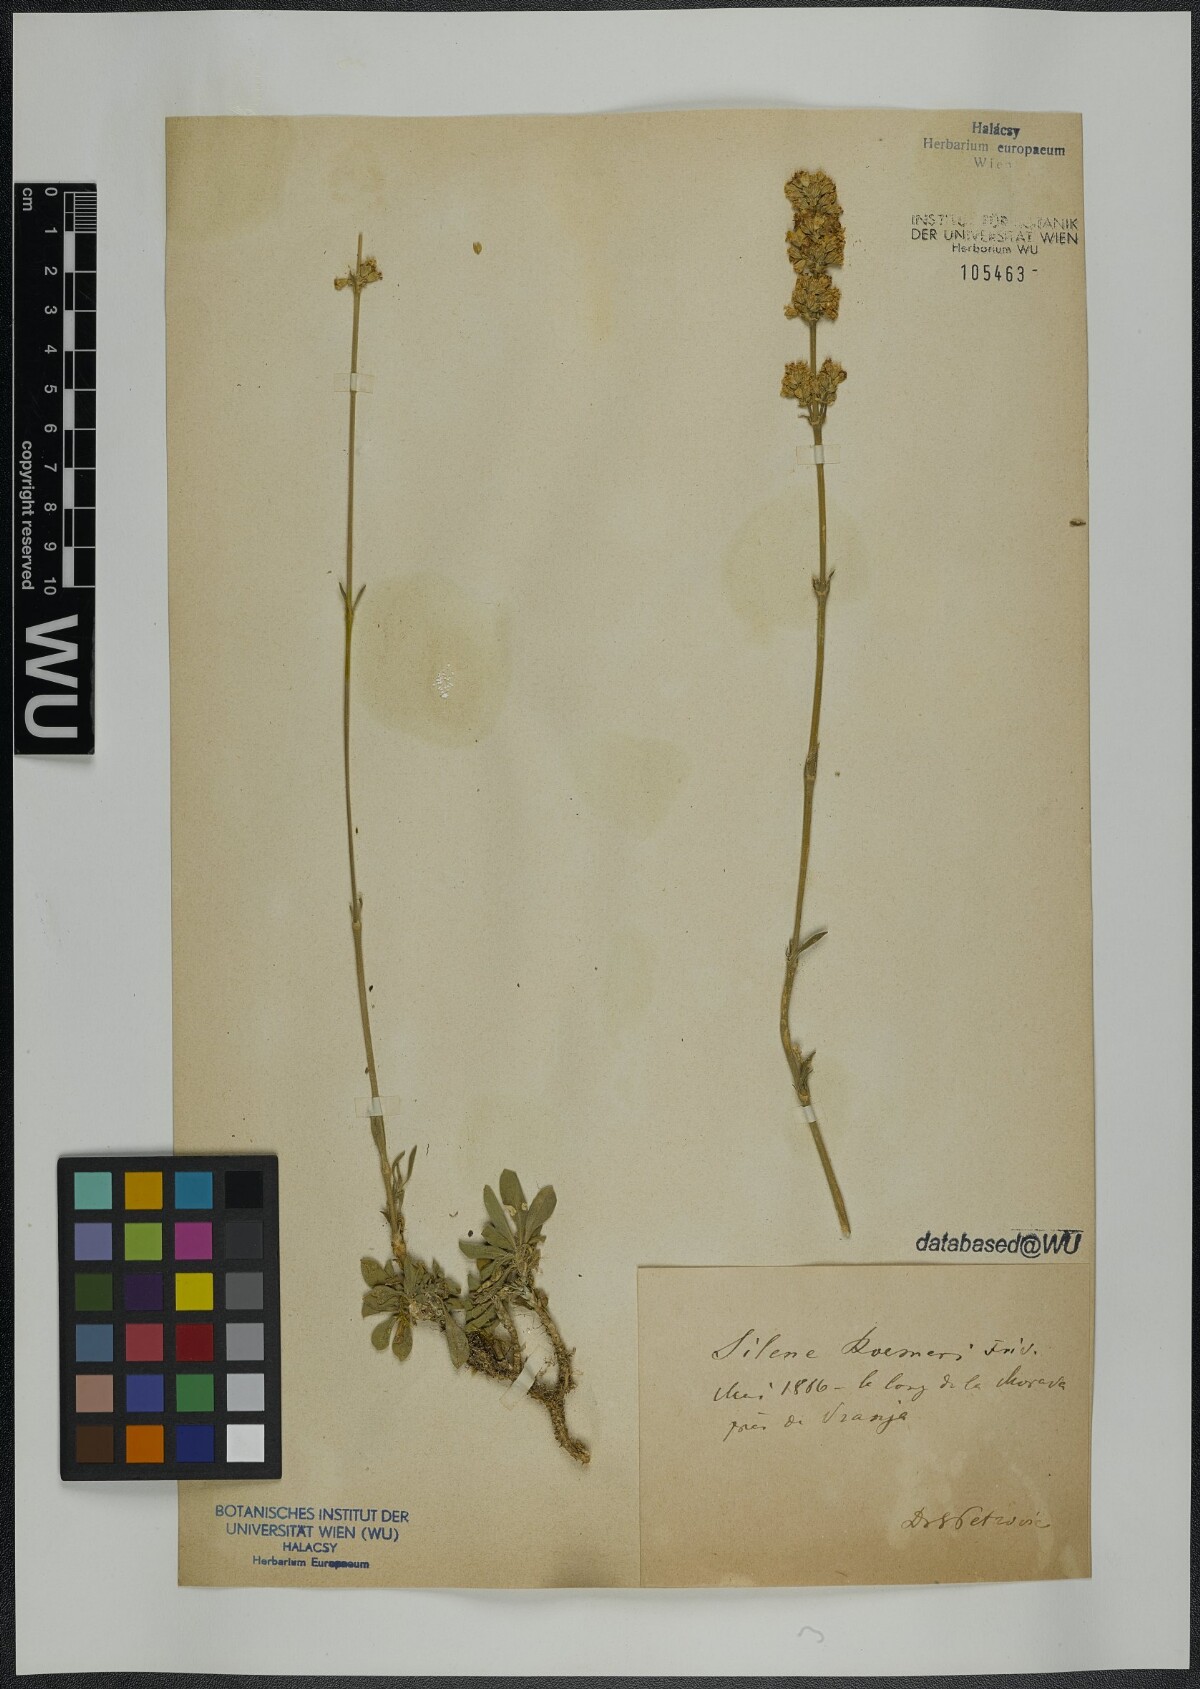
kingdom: Plantae
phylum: Tracheophyta
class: Magnoliopsida
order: Caryophyllales
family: Caryophyllaceae
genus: Silene
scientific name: Silene roemeri
